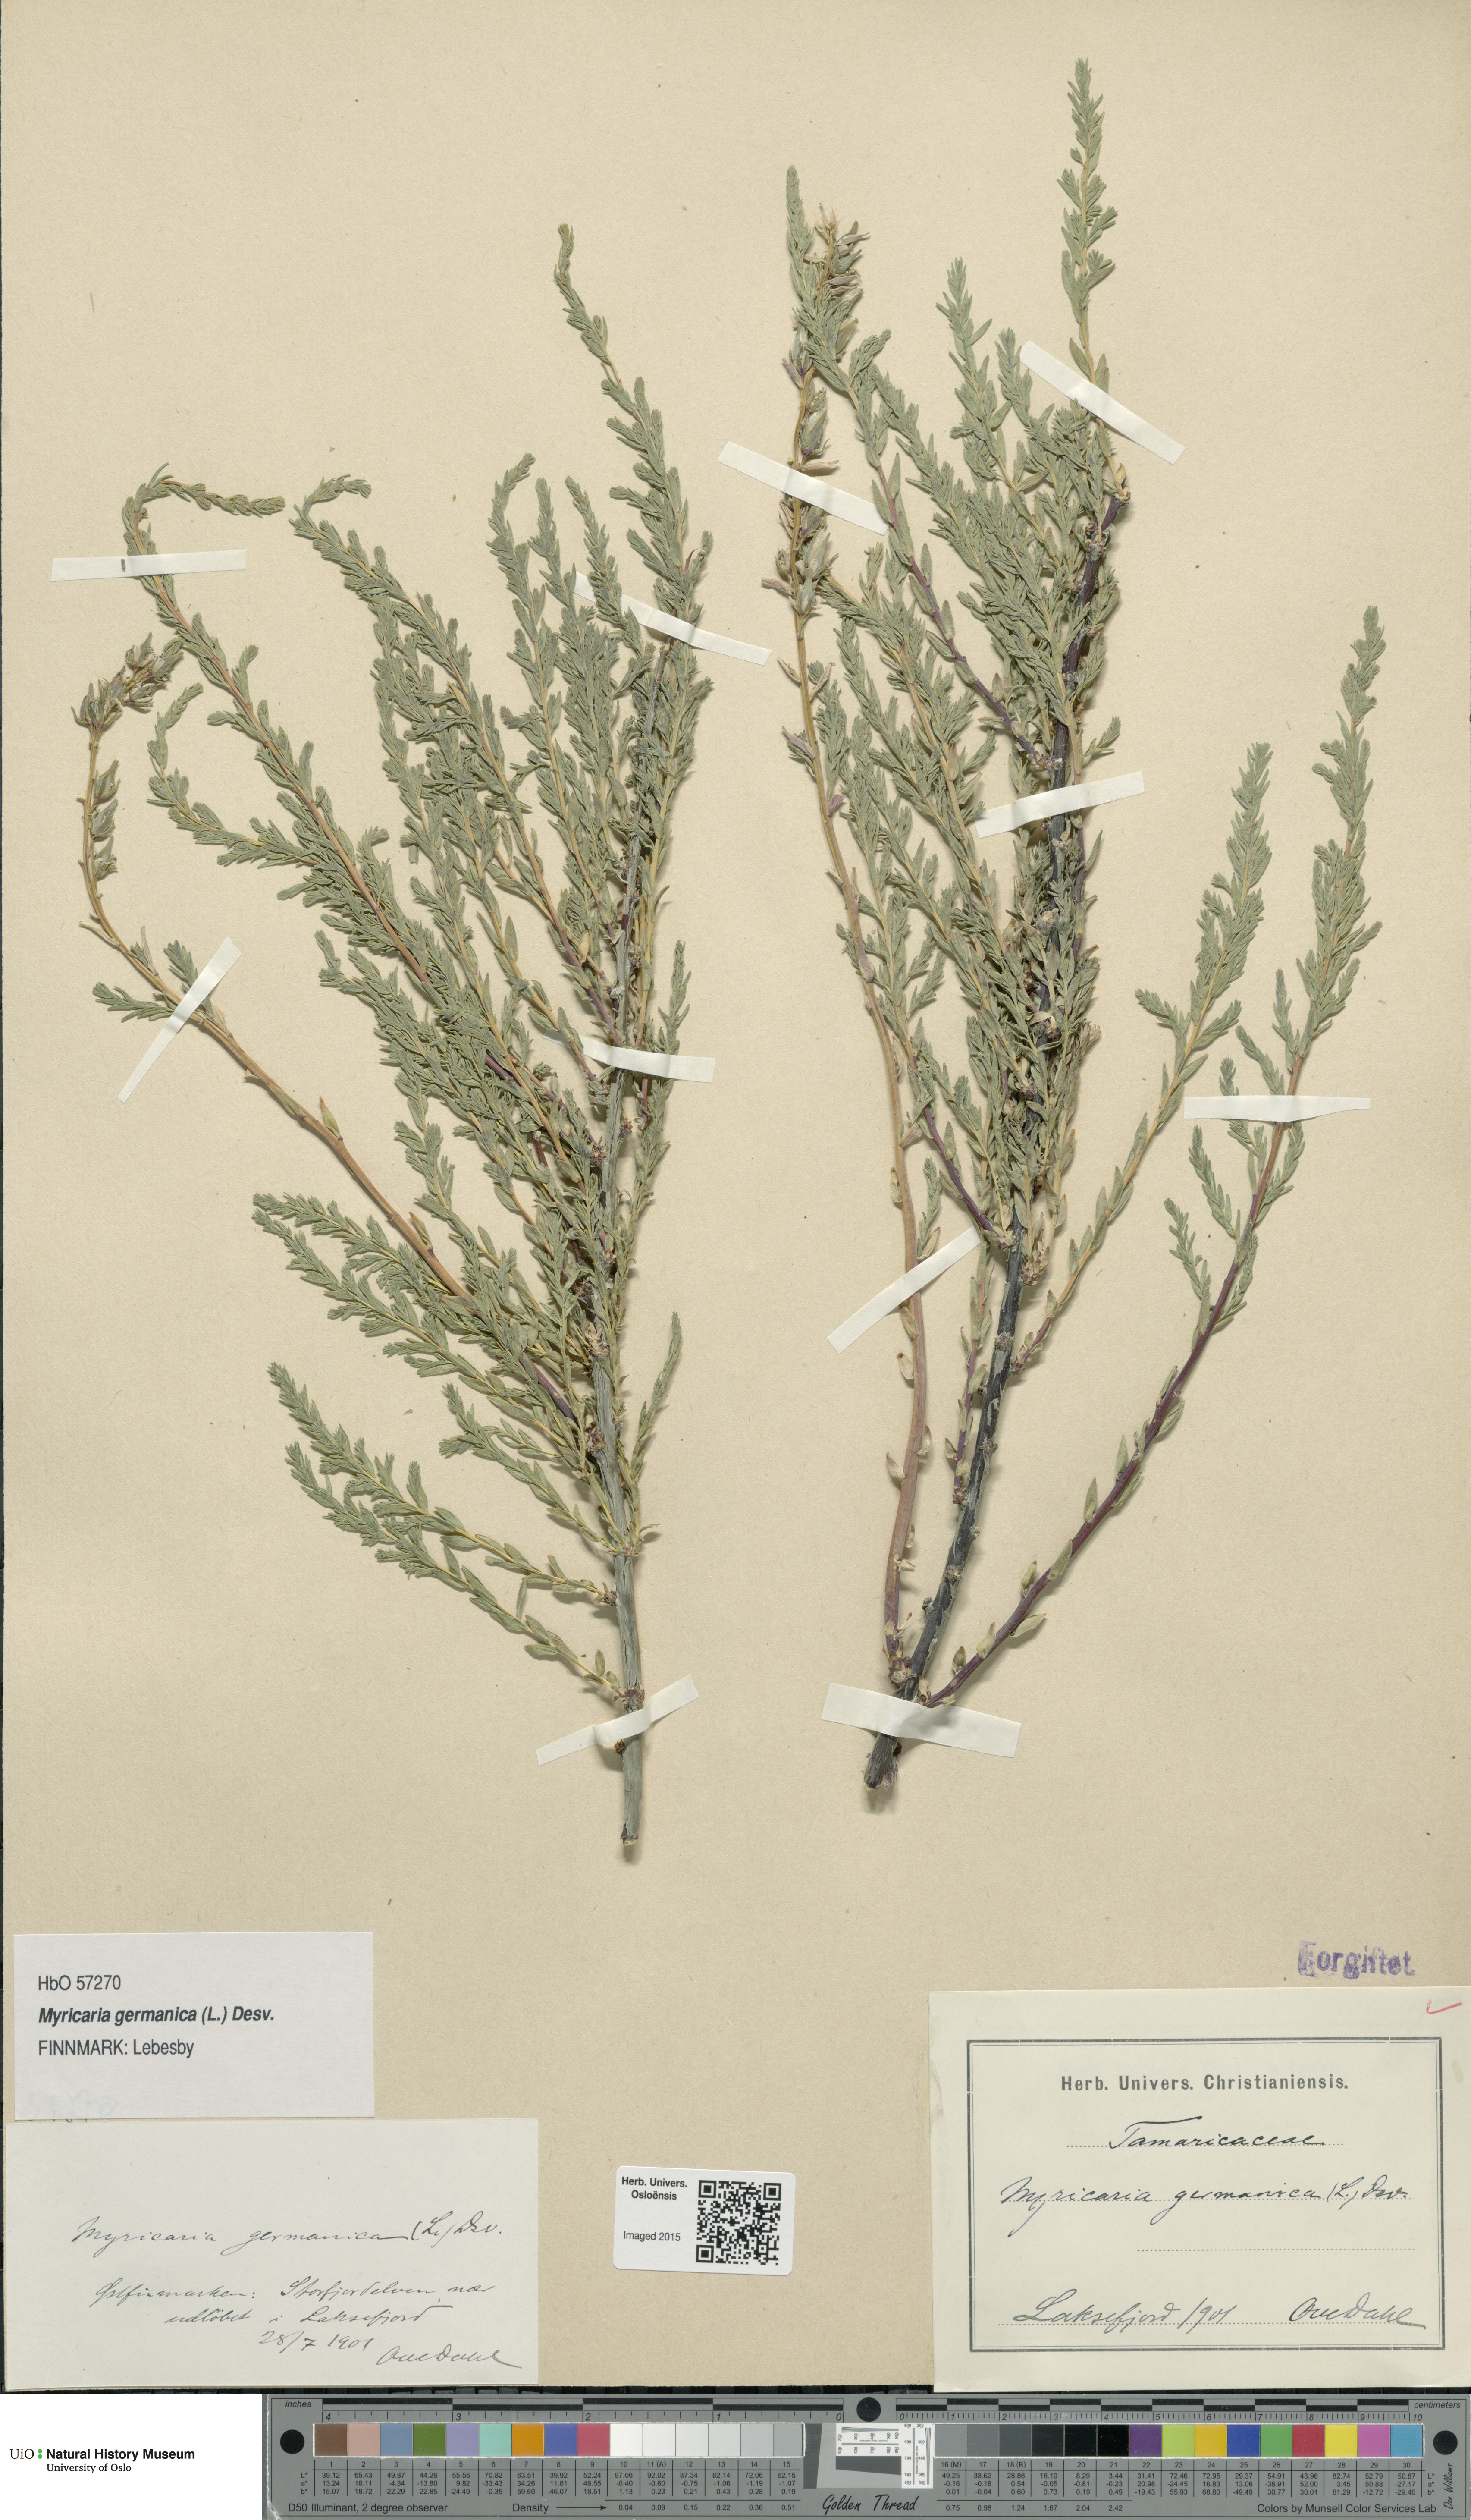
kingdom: Plantae
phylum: Tracheophyta
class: Magnoliopsida
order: Caryophyllales
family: Tamaricaceae
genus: Myricaria
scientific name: Myricaria germanica
